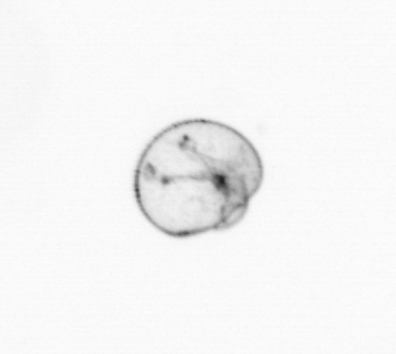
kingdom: Chromista
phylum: Myzozoa
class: Dinophyceae
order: Noctilucales
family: Noctilucaceae
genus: Noctiluca
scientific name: Noctiluca scintillans
